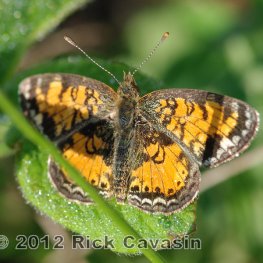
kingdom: Animalia
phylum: Arthropoda
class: Insecta
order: Lepidoptera
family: Nymphalidae
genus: Phyciodes
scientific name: Phyciodes tharos
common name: Pearl Crescent
